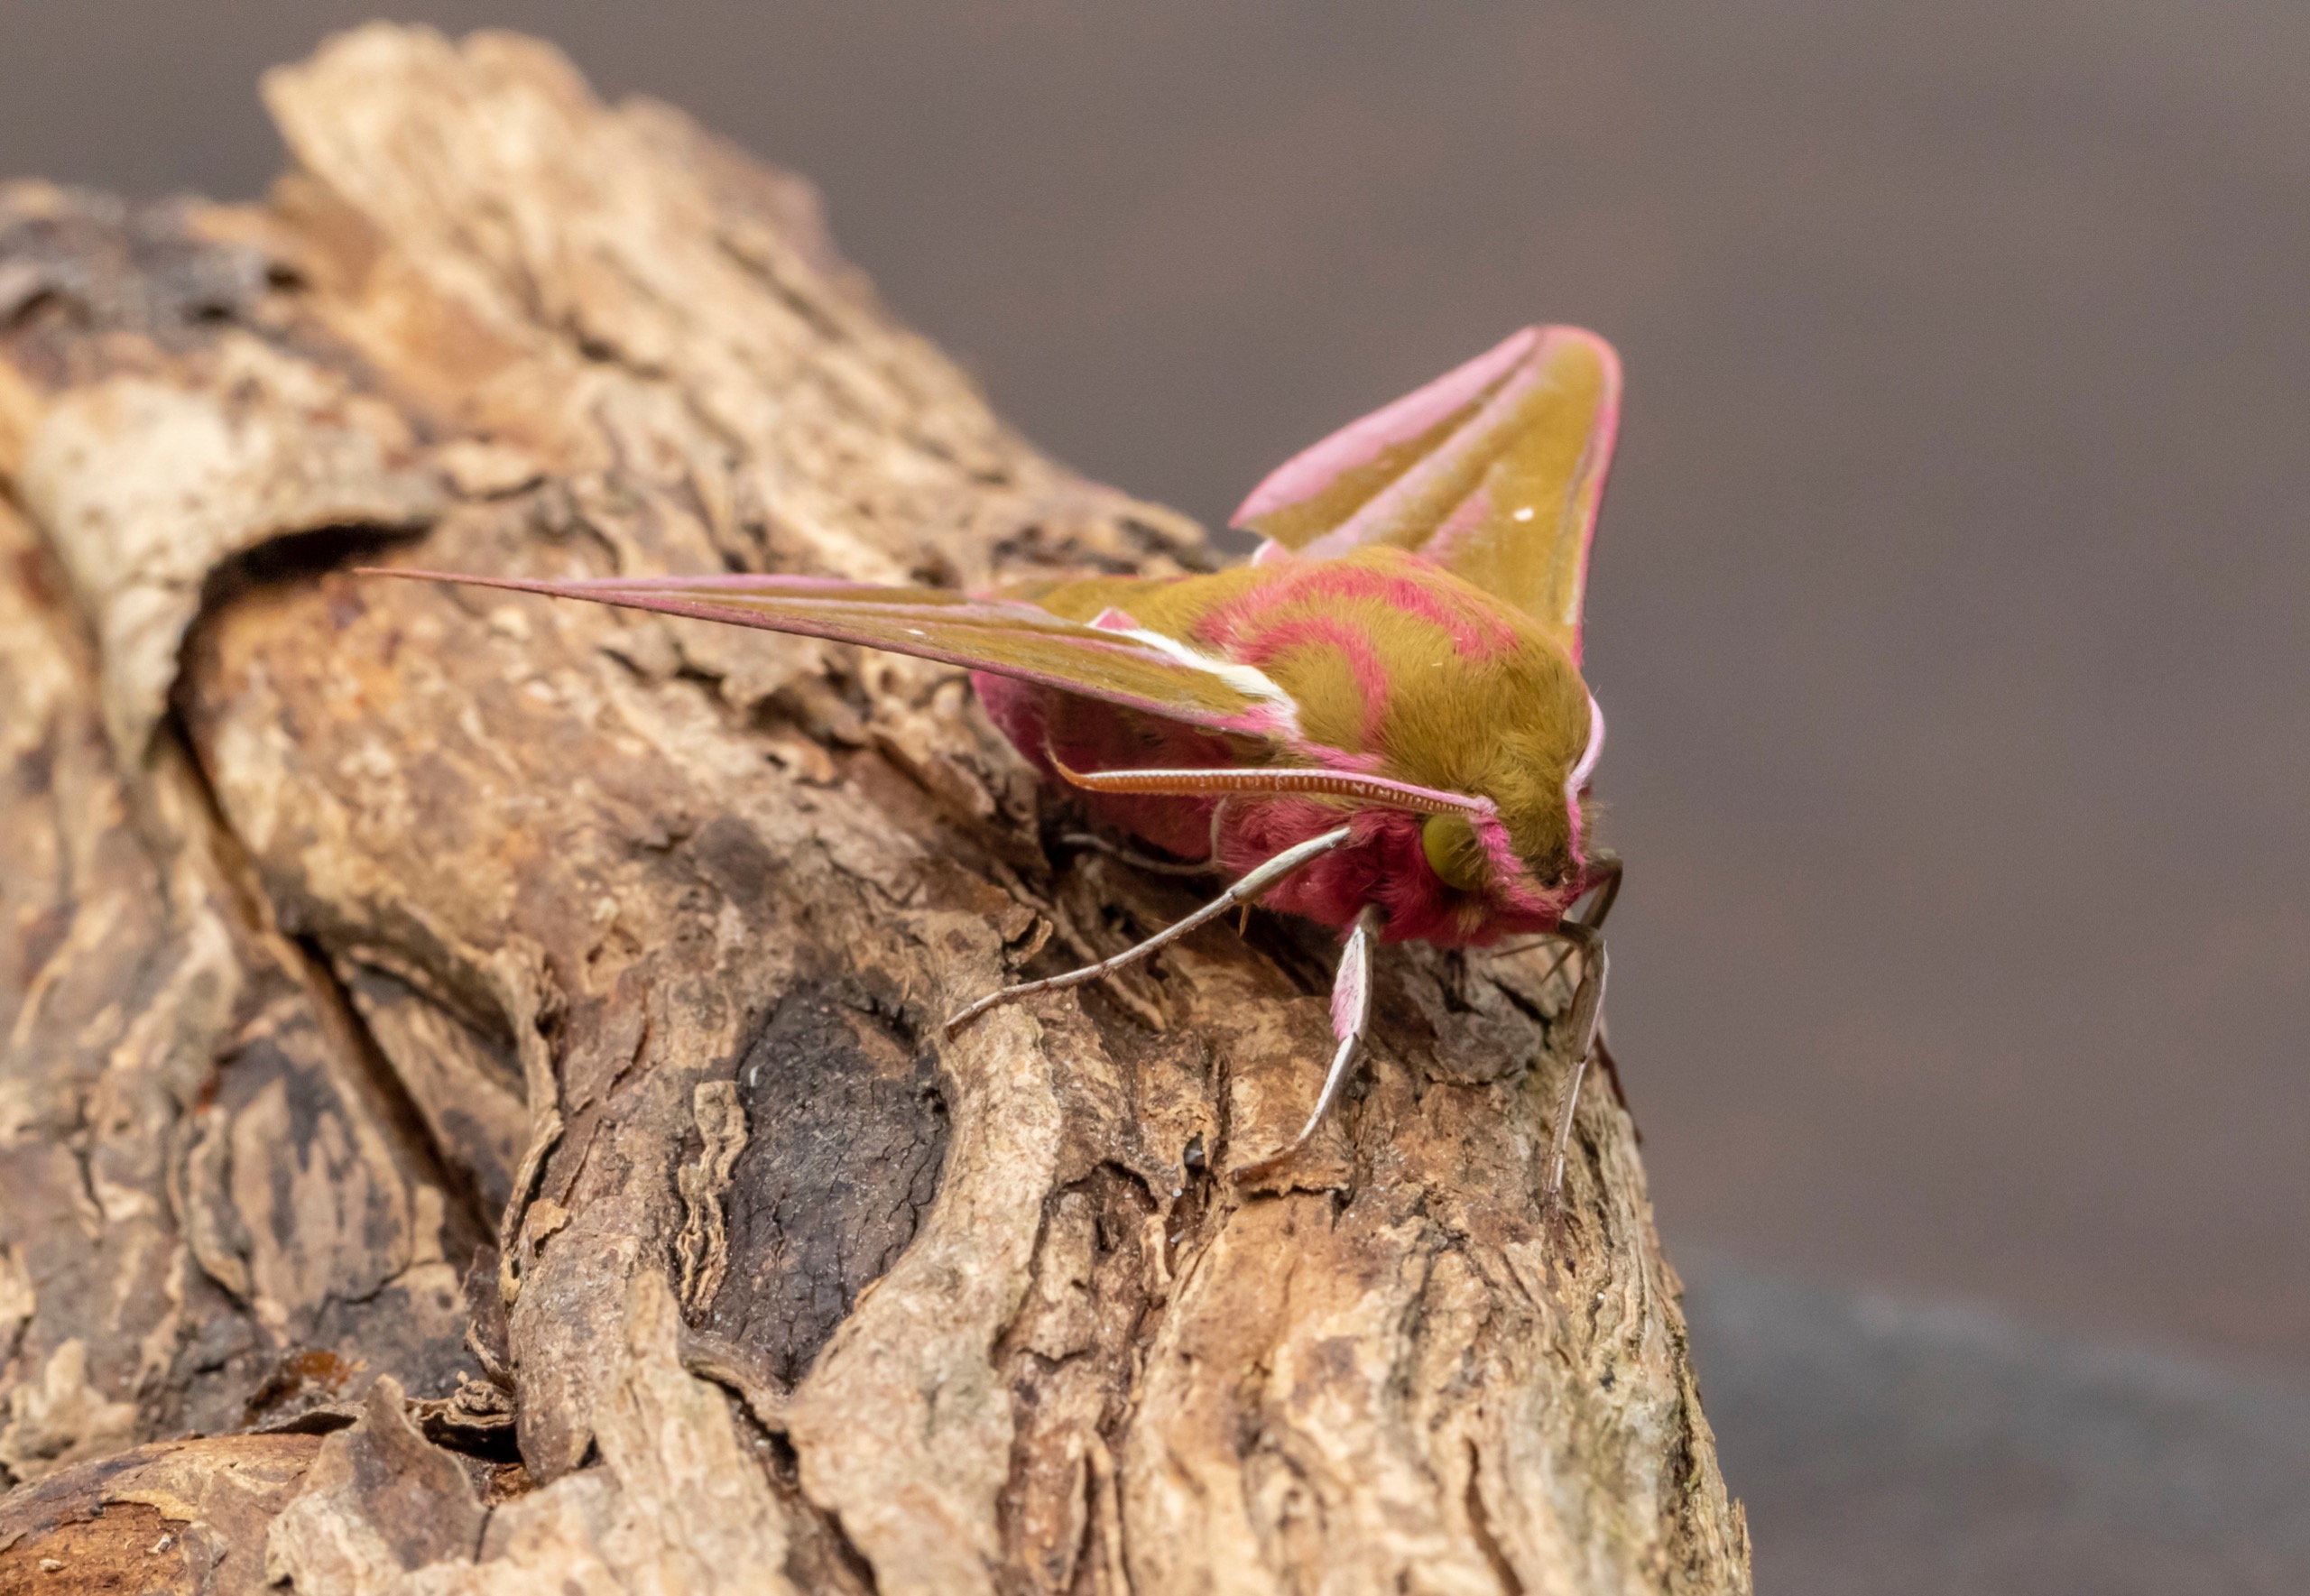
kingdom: Animalia
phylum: Arthropoda
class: Insecta
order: Lepidoptera
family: Sphingidae
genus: Deilephila
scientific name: Deilephila elpenor
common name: Dueurtsværmer
